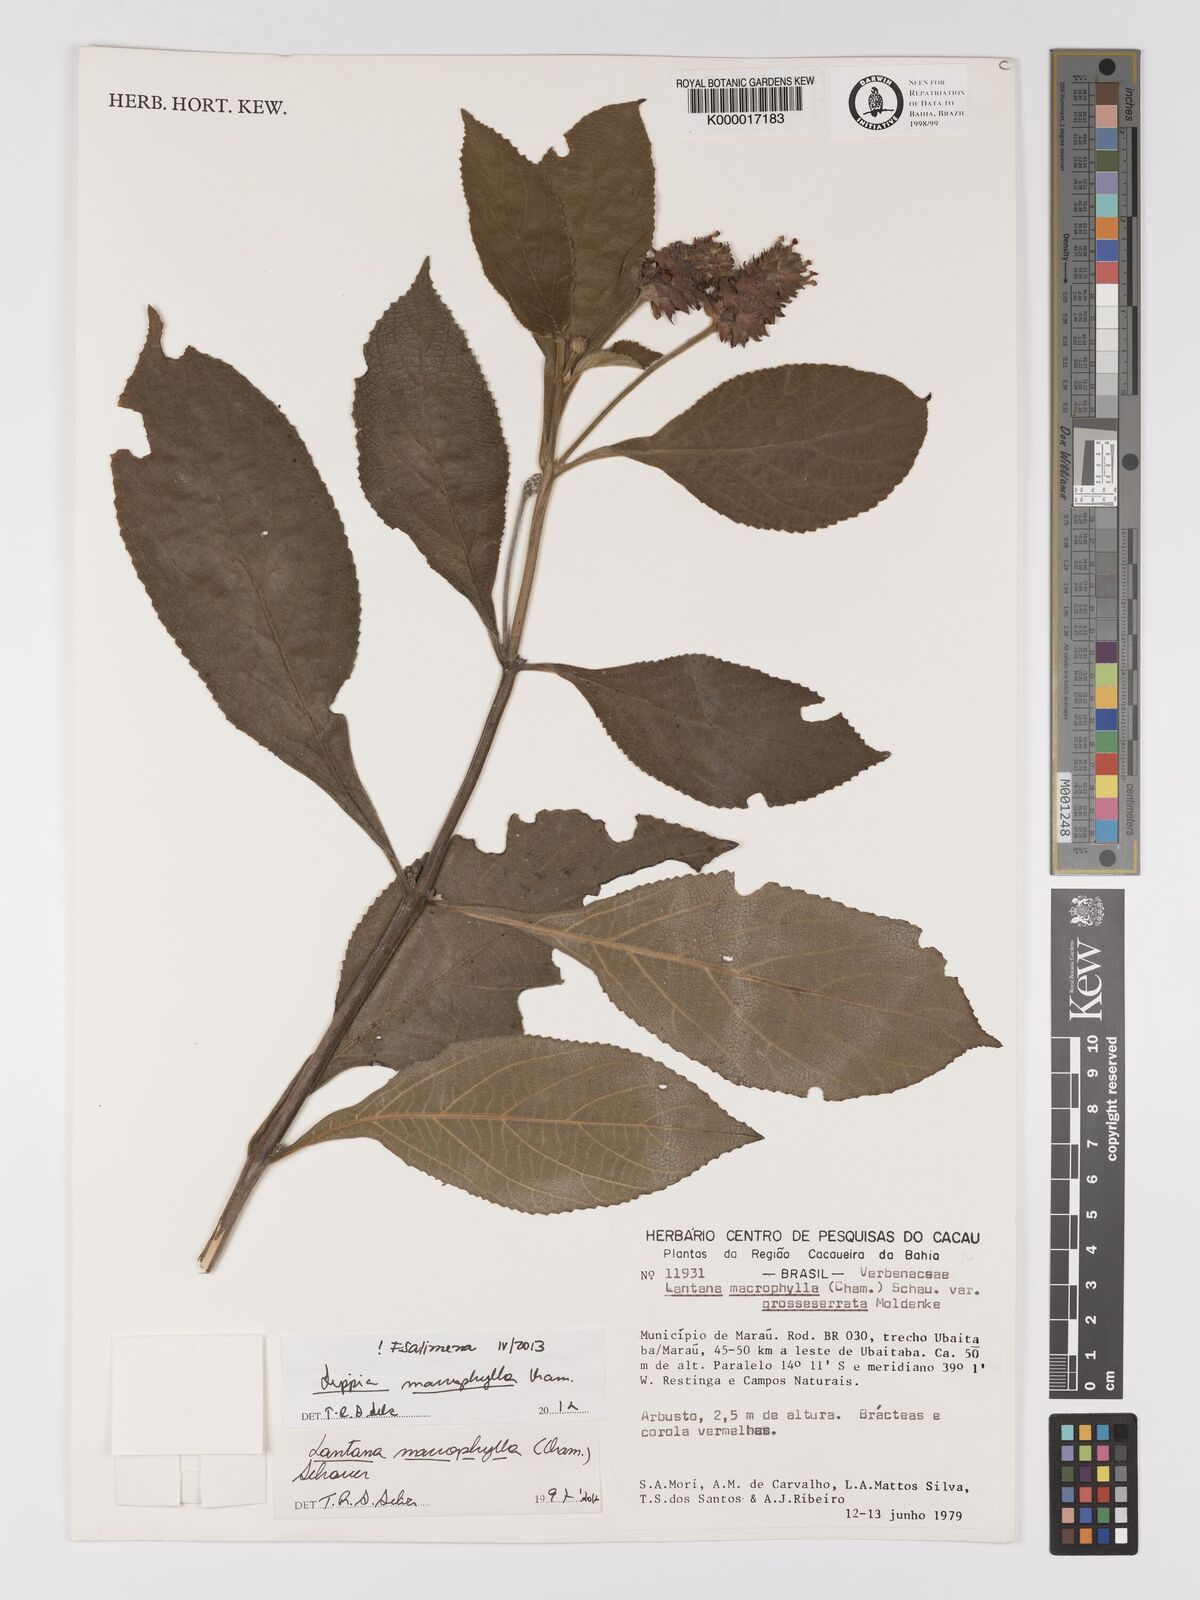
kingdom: Plantae
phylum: Tracheophyta
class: Magnoliopsida
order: Lamiales
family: Verbenaceae
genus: Lippia
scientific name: Lippia macrophylla
